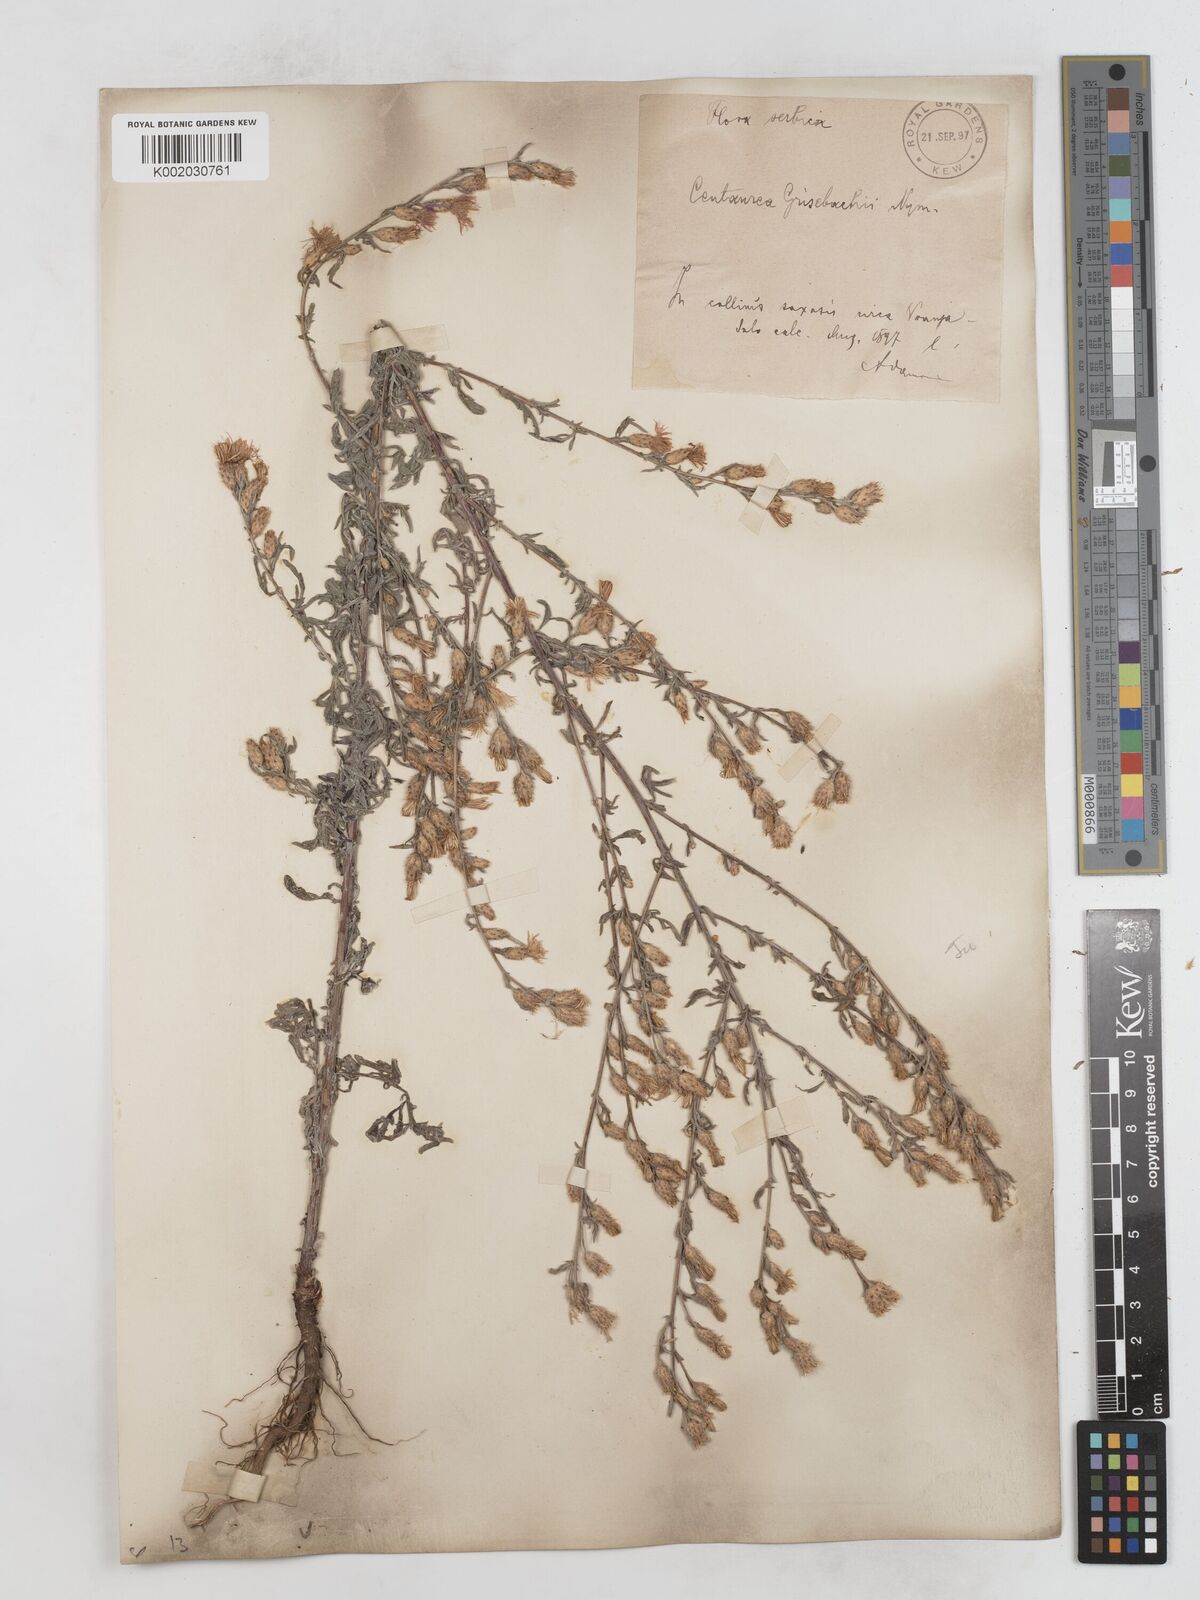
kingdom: Plantae
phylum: Tracheophyta
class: Magnoliopsida
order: Asterales
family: Asteraceae
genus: Centaurea
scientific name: Centaurea diffusa
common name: Diffuse knapweed
